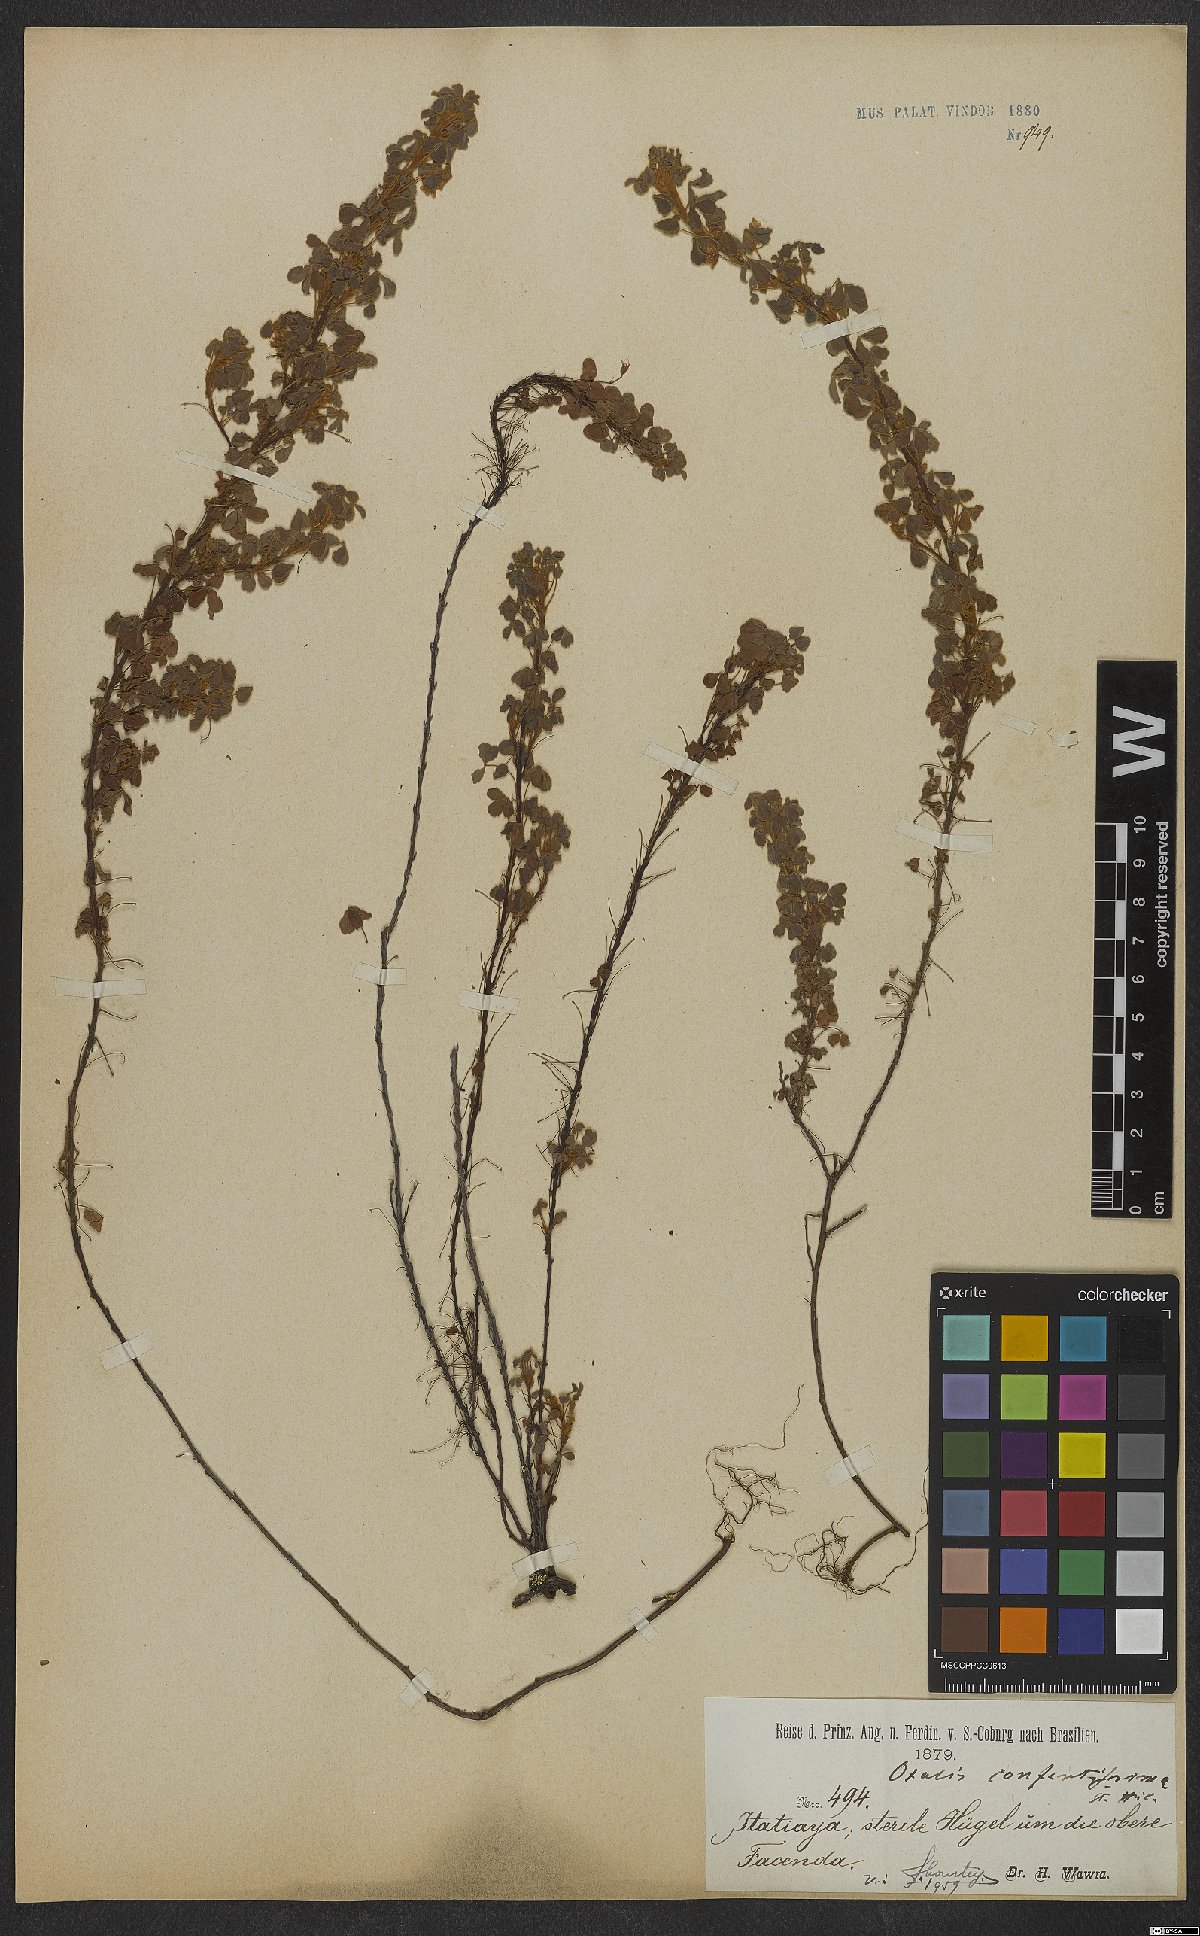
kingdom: Plantae
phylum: Tracheophyta
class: Magnoliopsida
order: Oxalidales
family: Oxalidaceae
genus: Oxalis
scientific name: Oxalis confertissima
